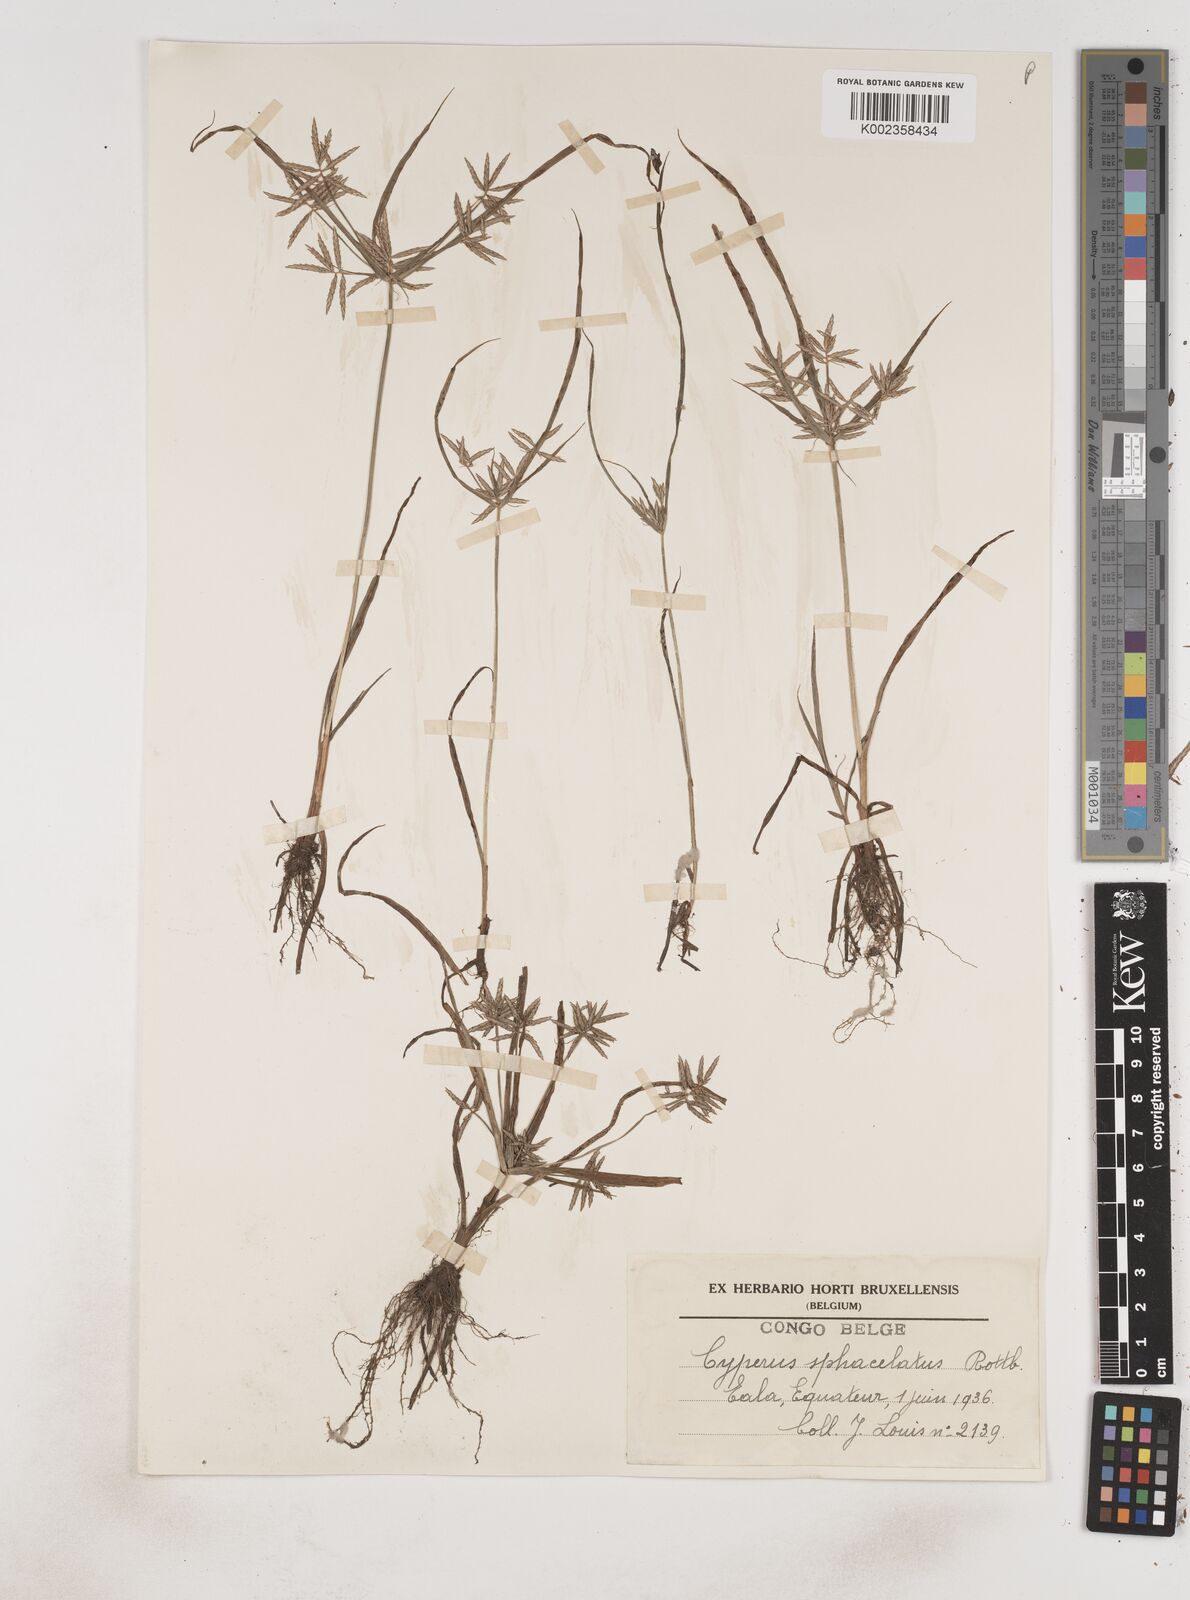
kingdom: Plantae
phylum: Tracheophyta
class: Liliopsida
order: Poales
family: Cyperaceae
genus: Cyperus
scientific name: Cyperus sphacelatus
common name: Roadside flatsedge
